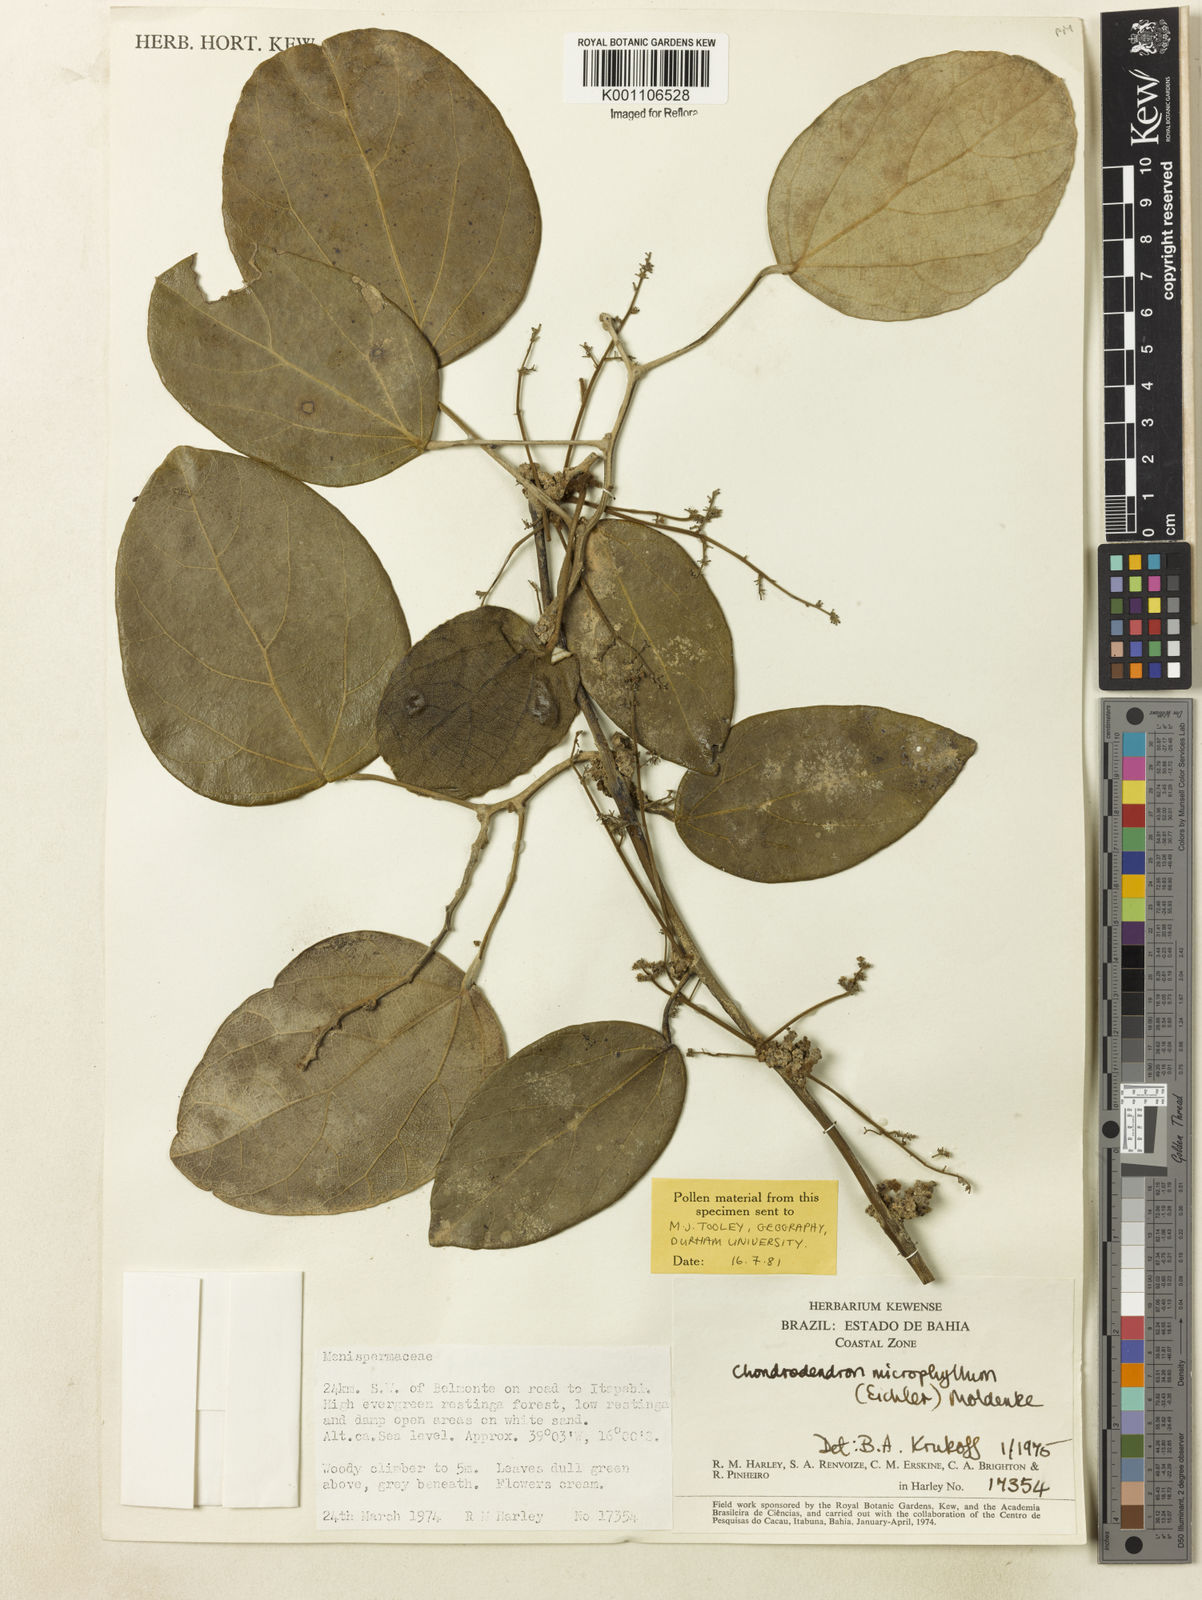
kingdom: Plantae
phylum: Tracheophyta
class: Magnoliopsida
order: Ranunculales
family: Menispermaceae
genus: Chondrodendron
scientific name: Chondrodendron microphyllum
